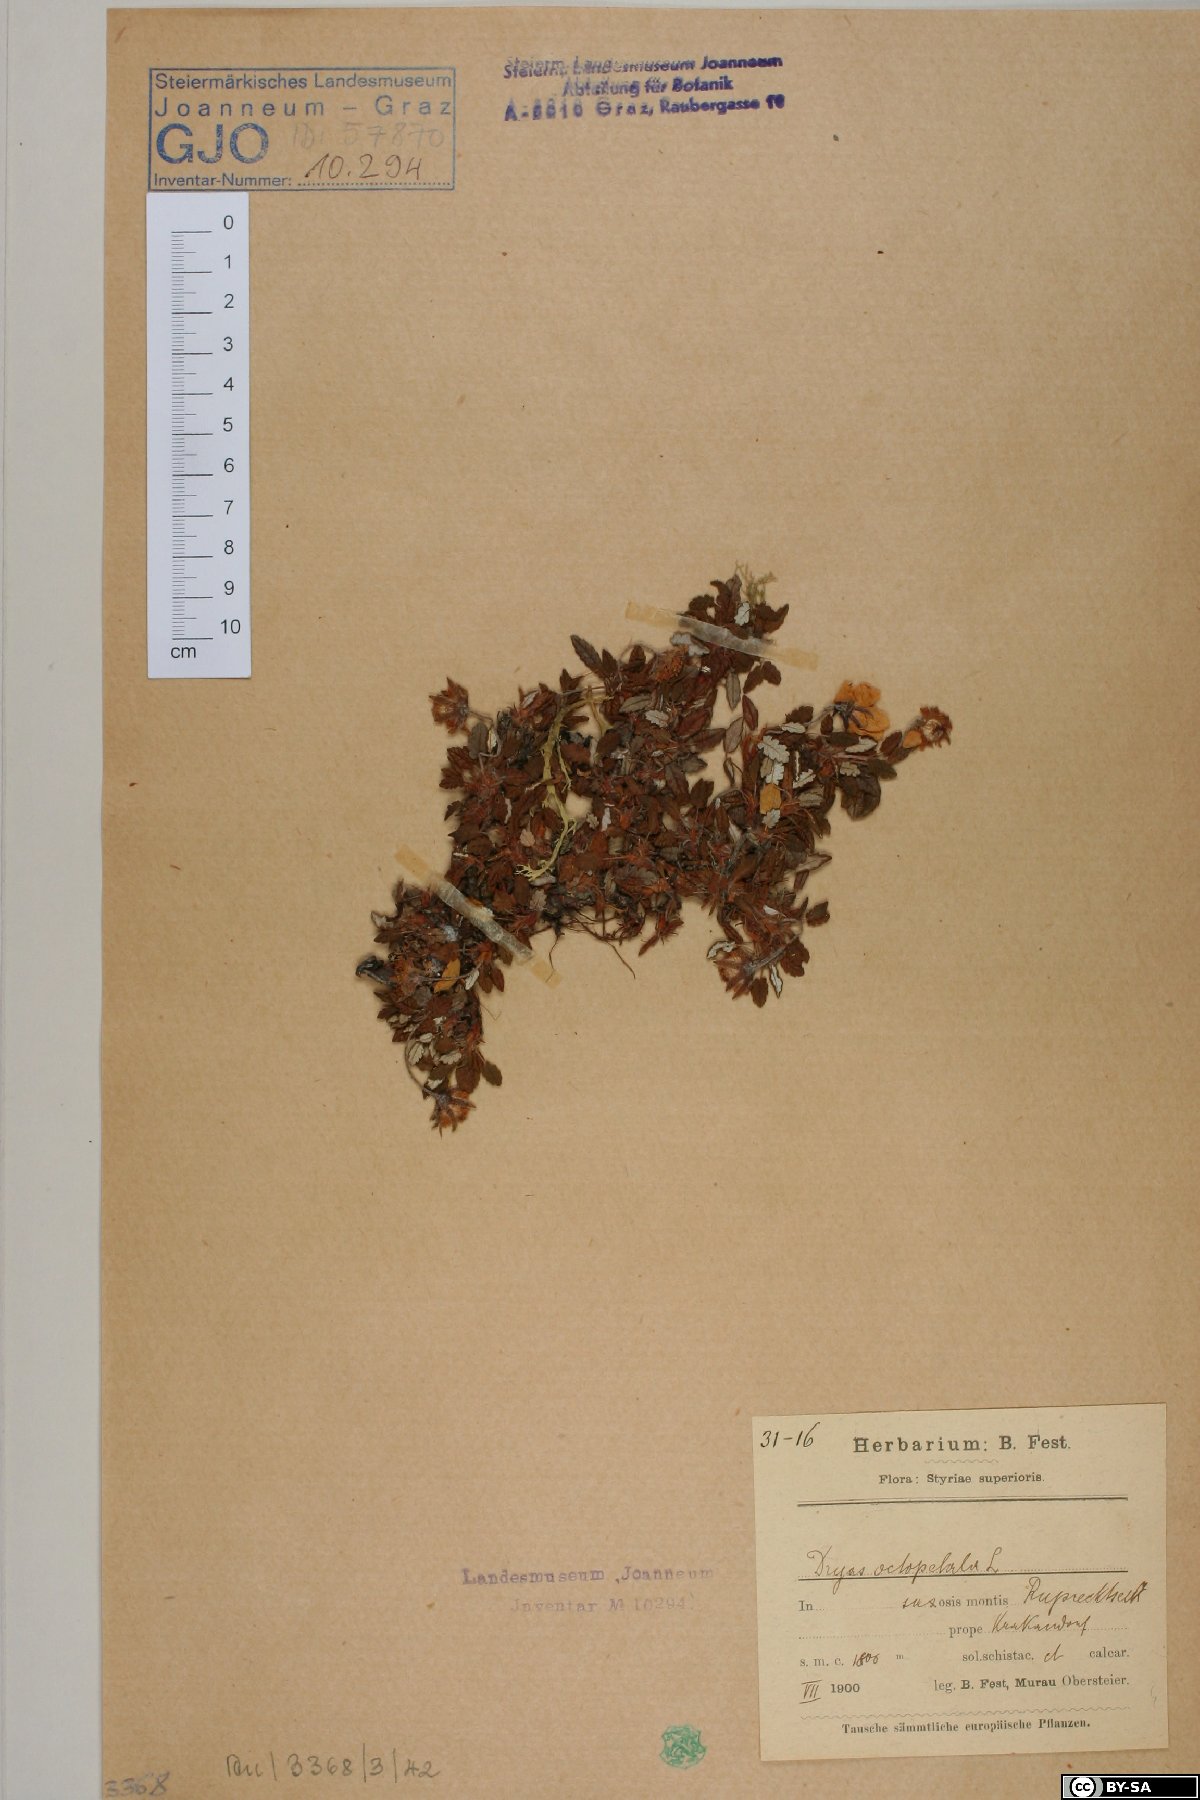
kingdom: Plantae
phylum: Tracheophyta
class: Magnoliopsida
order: Rosales
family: Rosaceae
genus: Dryas
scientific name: Dryas octopetala
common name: Eight-petal mountain-avens
